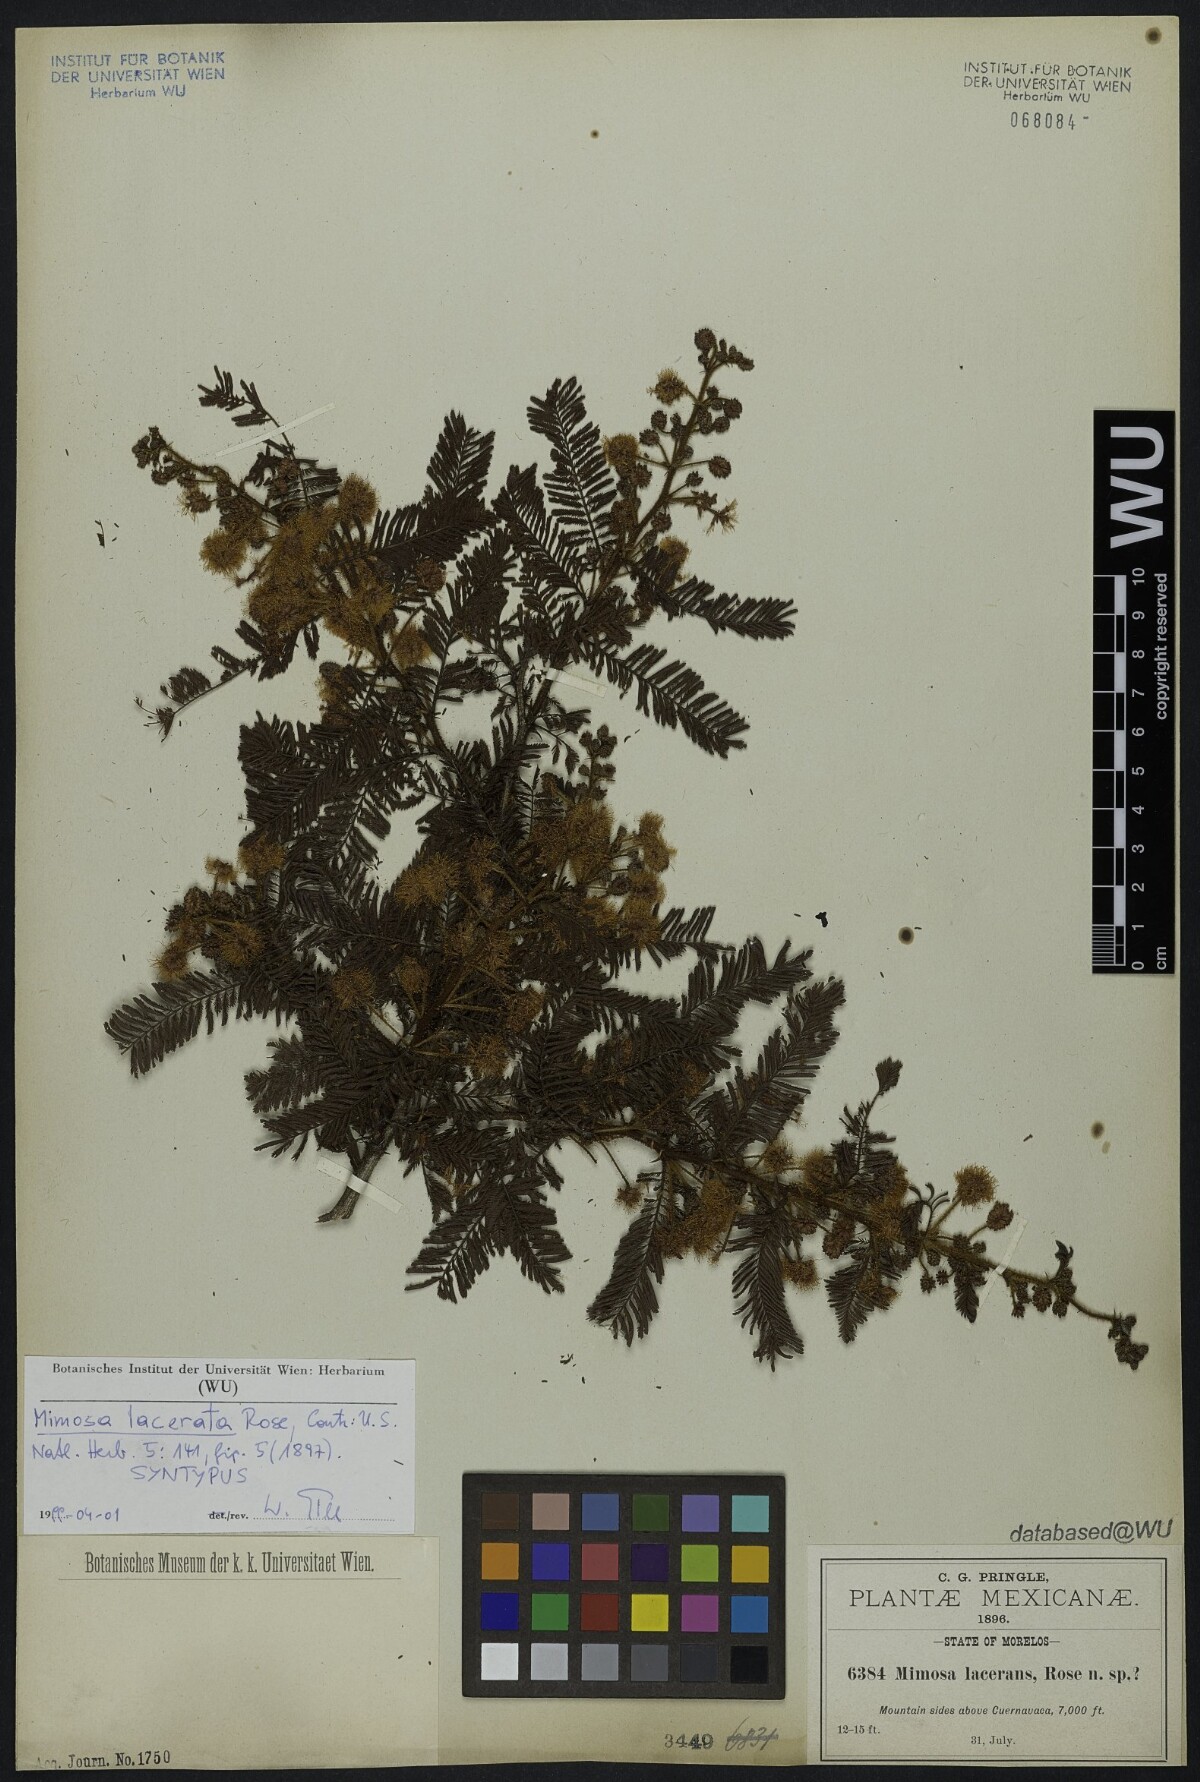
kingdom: Plantae
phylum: Tracheophyta
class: Magnoliopsida
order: Fabales
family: Fabaceae
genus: Mimosa
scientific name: Mimosa lacerata
